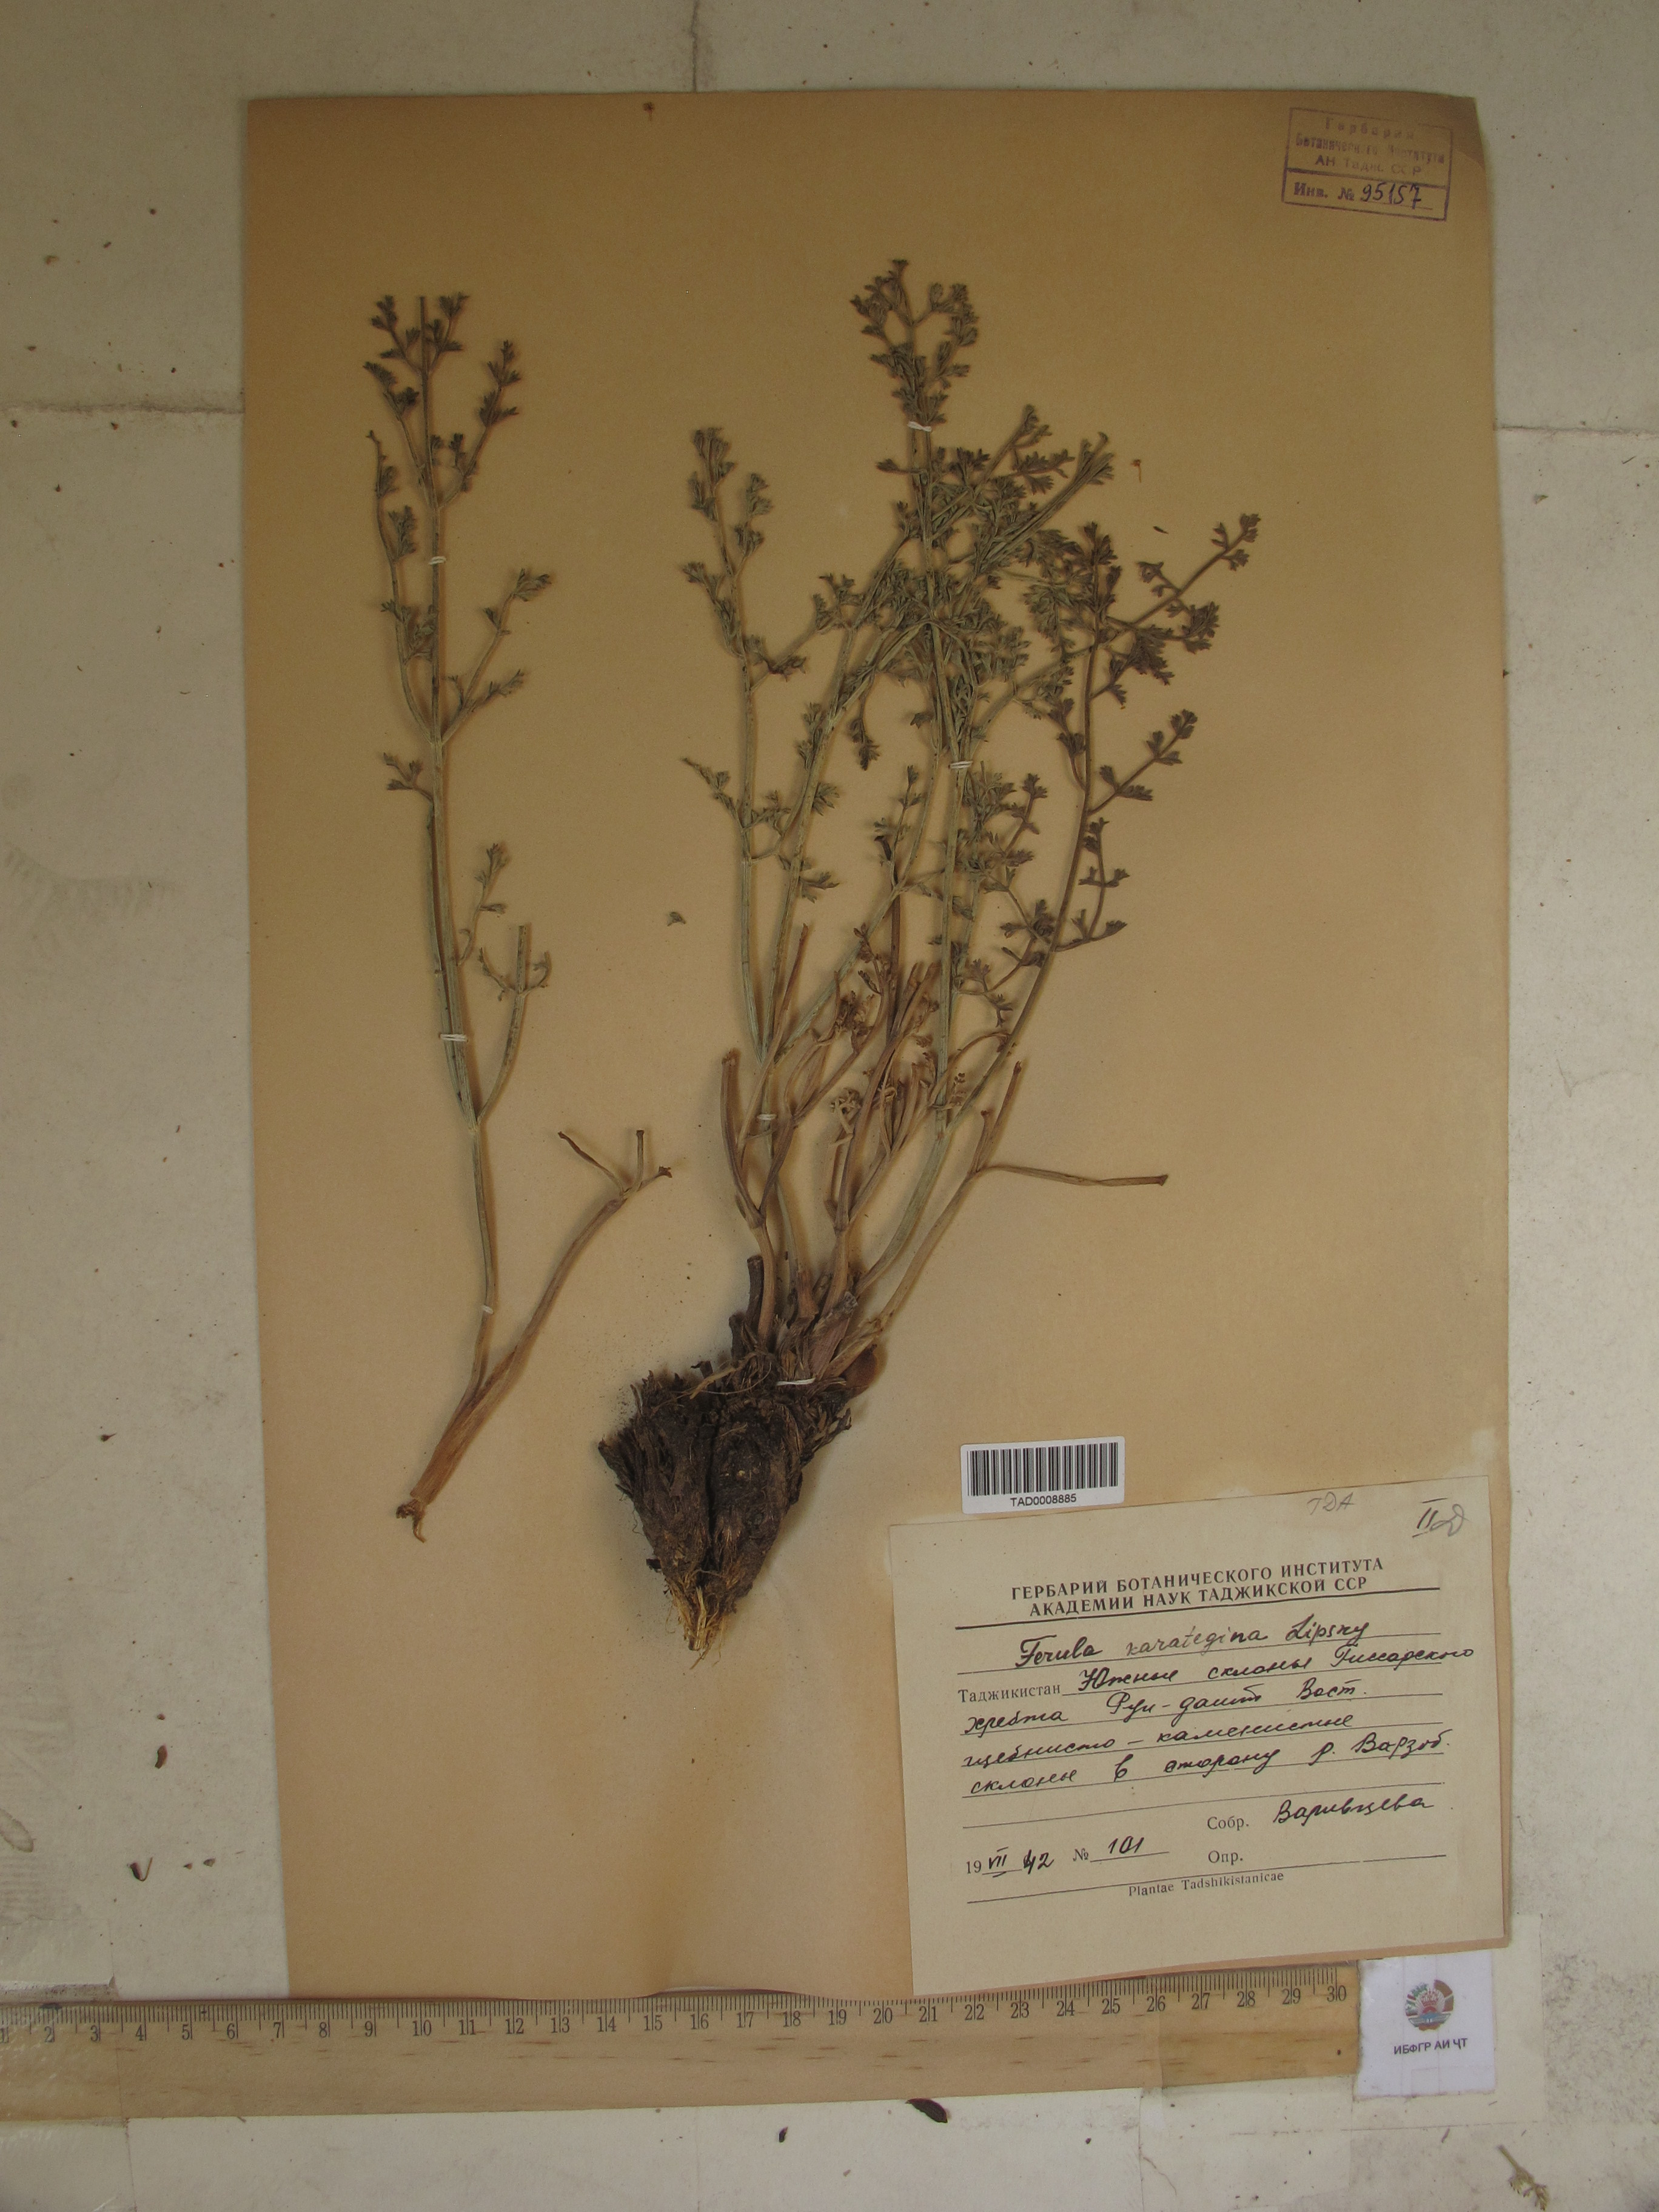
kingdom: Plantae
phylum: Tracheophyta
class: Magnoliopsida
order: Apiales
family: Apiaceae
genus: Ferula
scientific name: Ferula karategina
